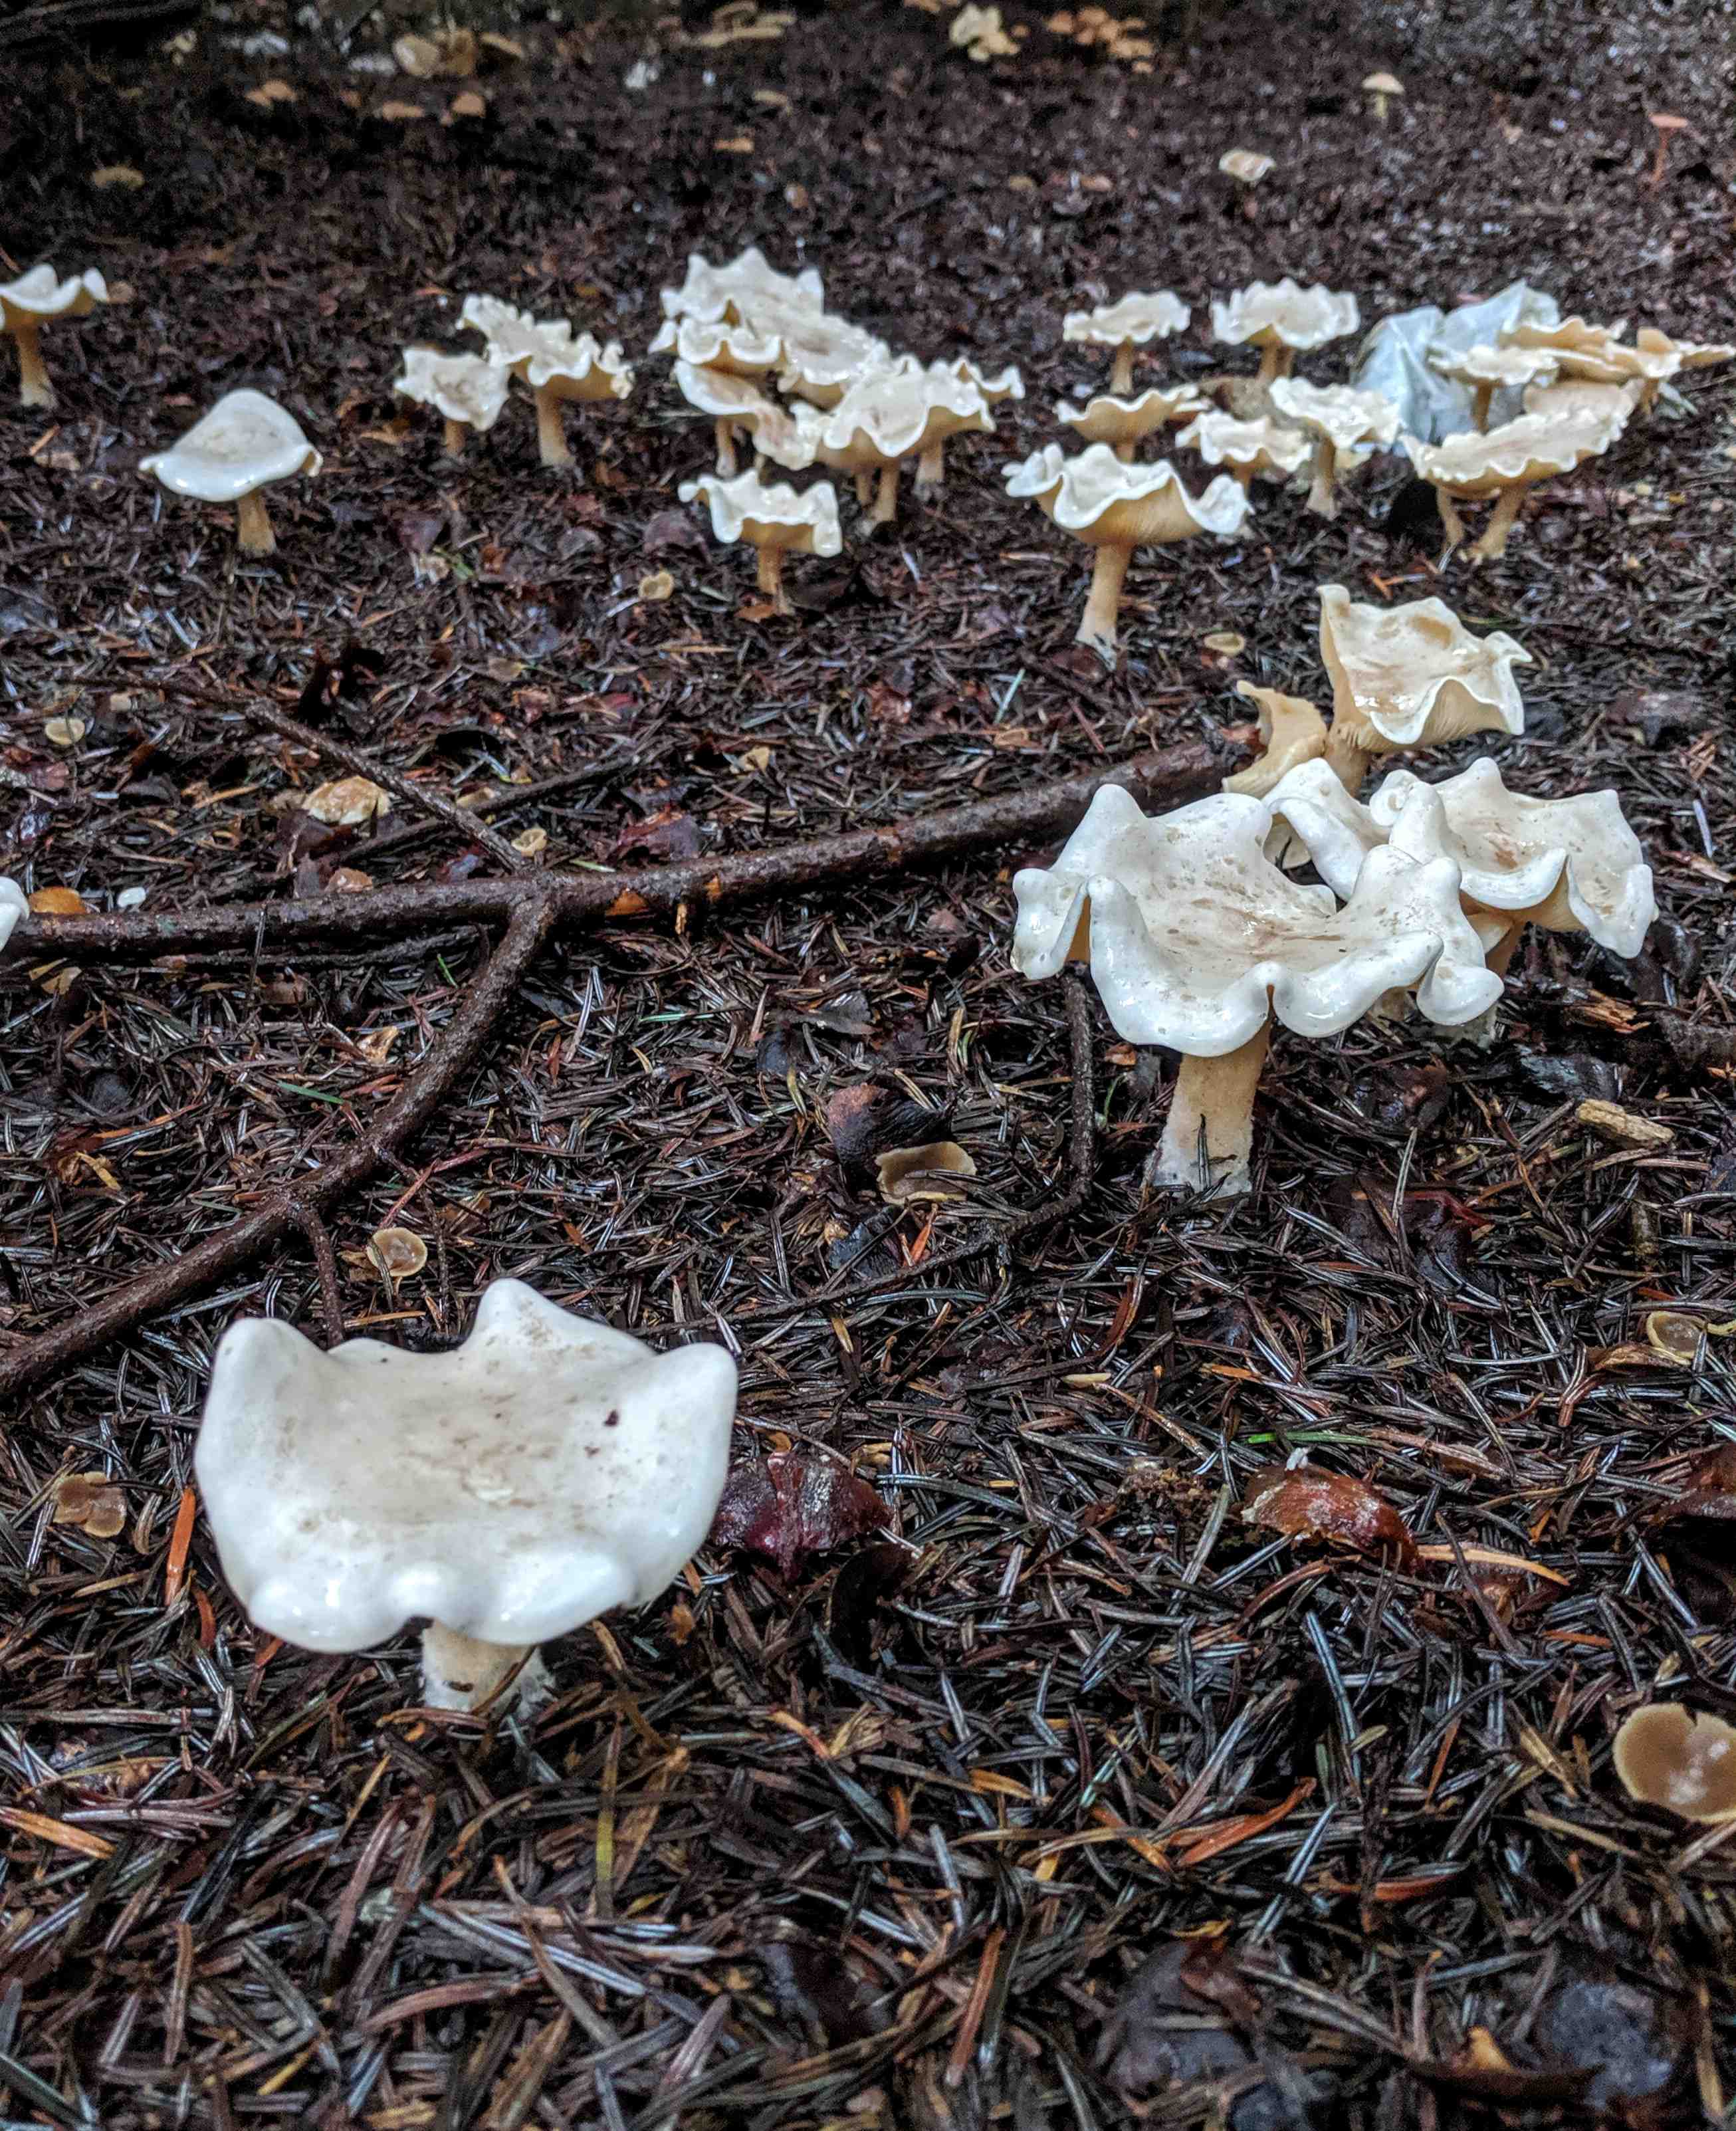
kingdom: Fungi
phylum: Basidiomycota
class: Agaricomycetes
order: Agaricales
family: Tricholomataceae
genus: Clitocybe
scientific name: Clitocybe odora
